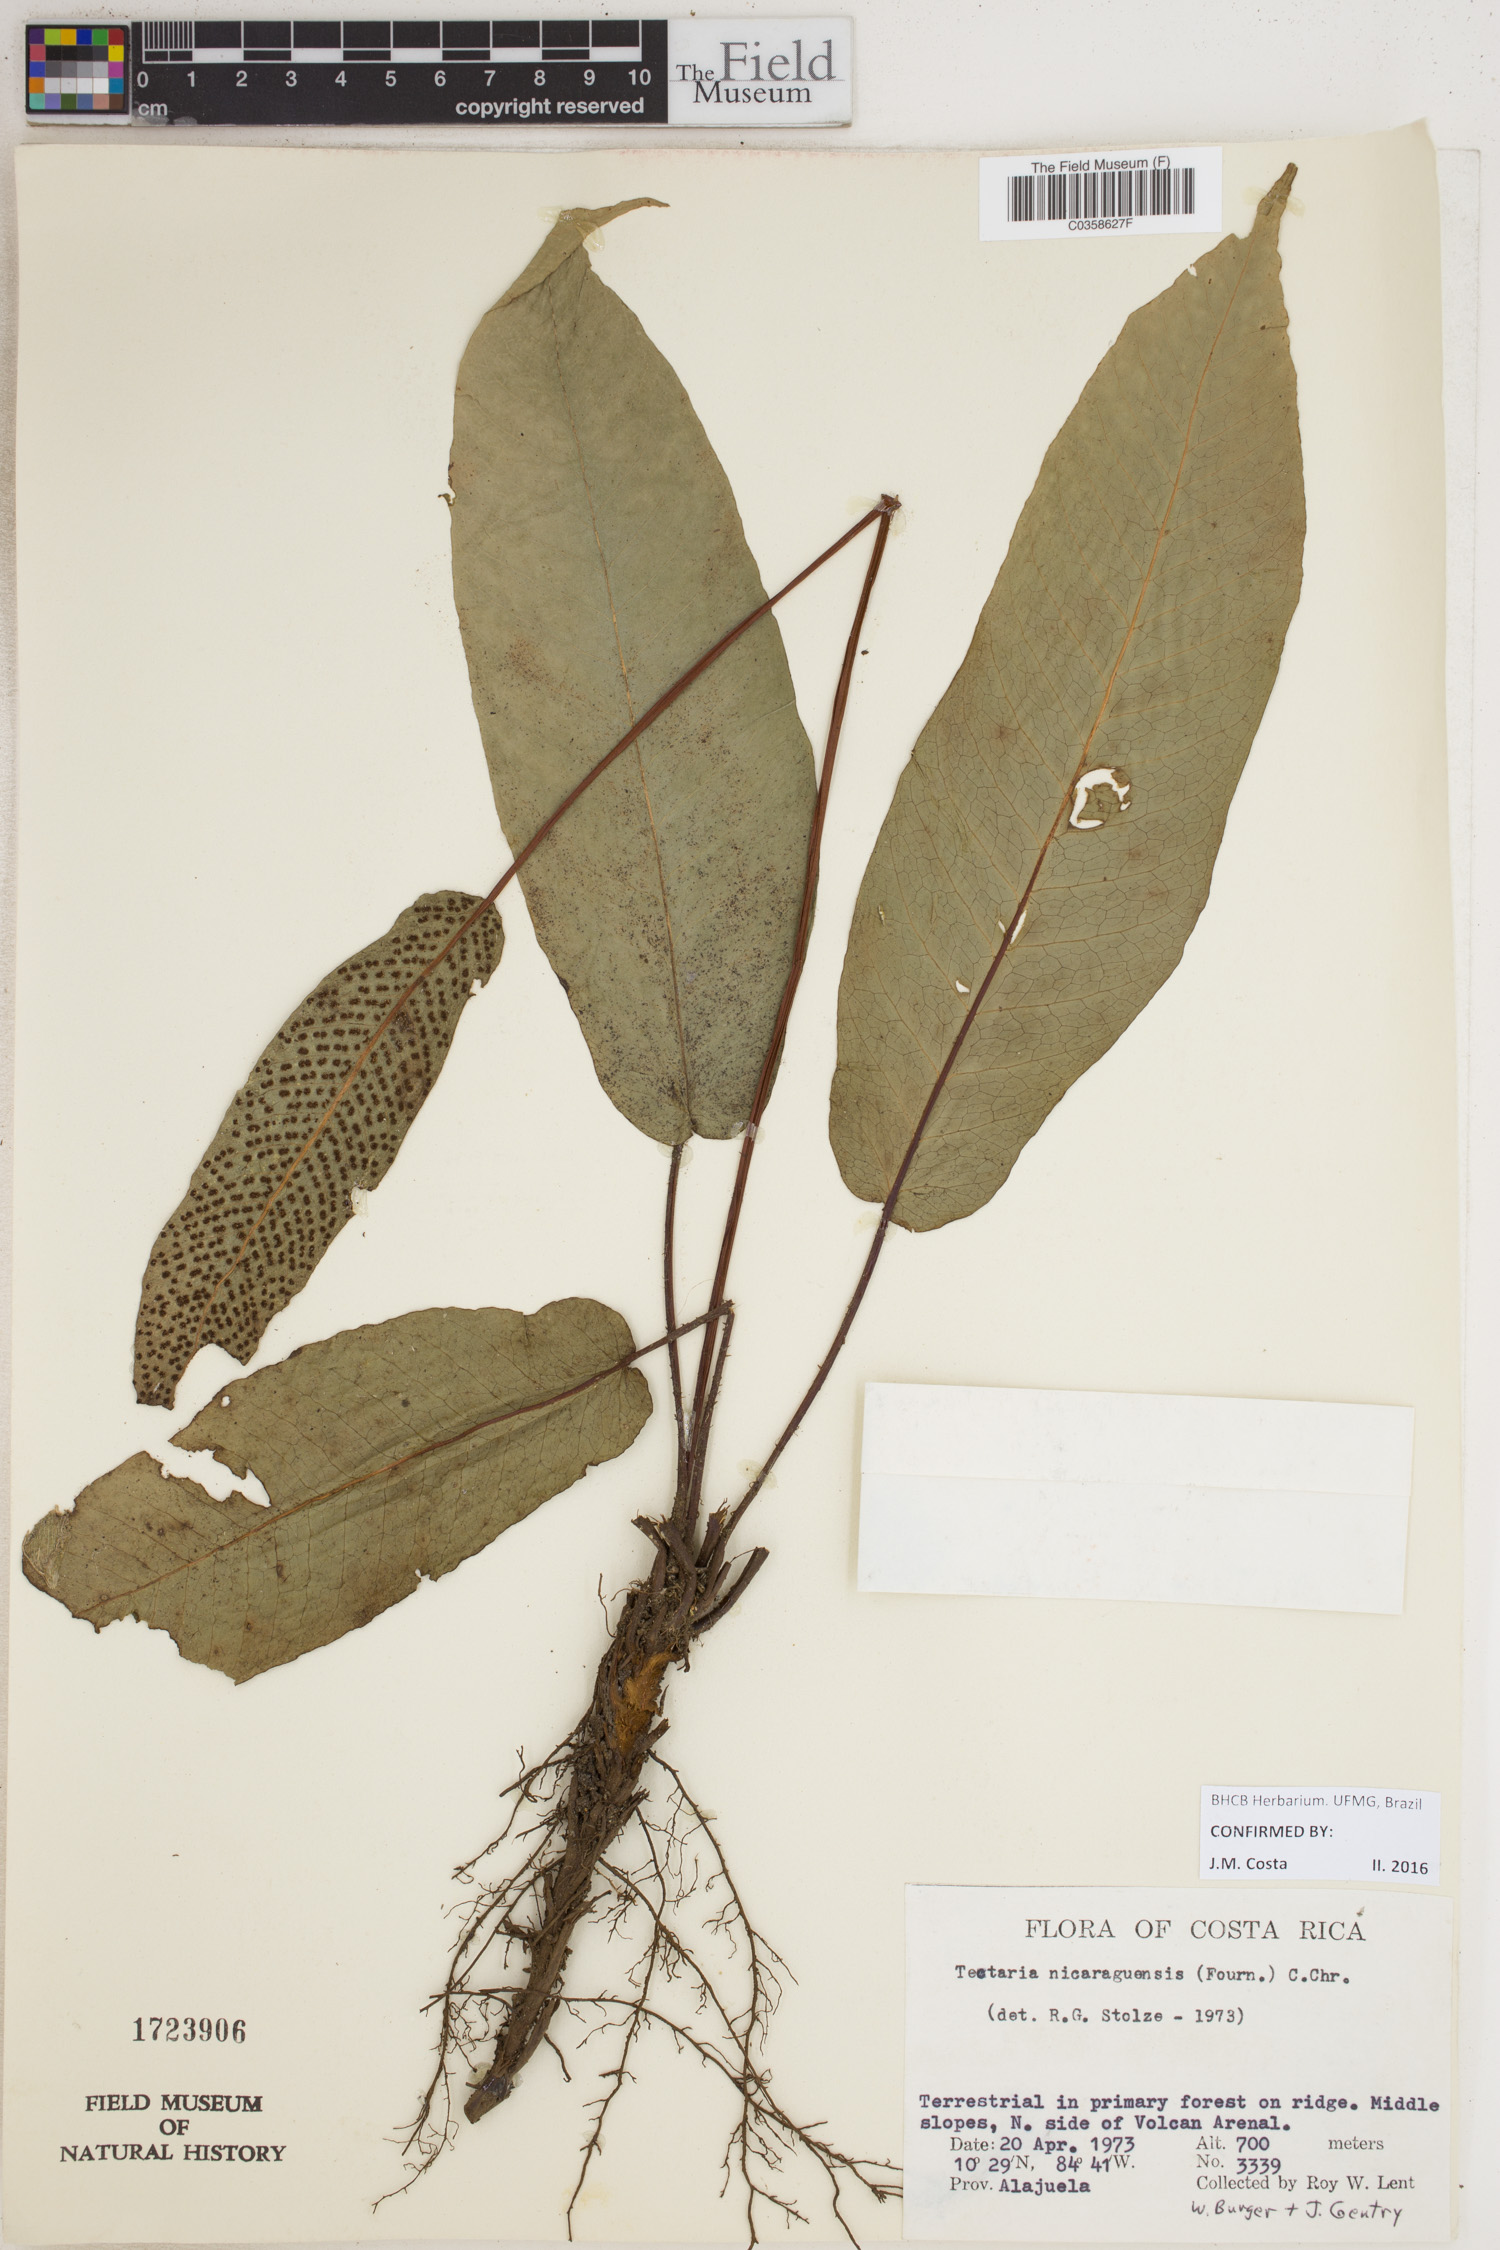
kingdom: Plantae
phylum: Tracheophyta
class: Polypodiopsida
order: Polypodiales
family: Tectariaceae
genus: Tectaria
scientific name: Tectaria nicaraguensis
